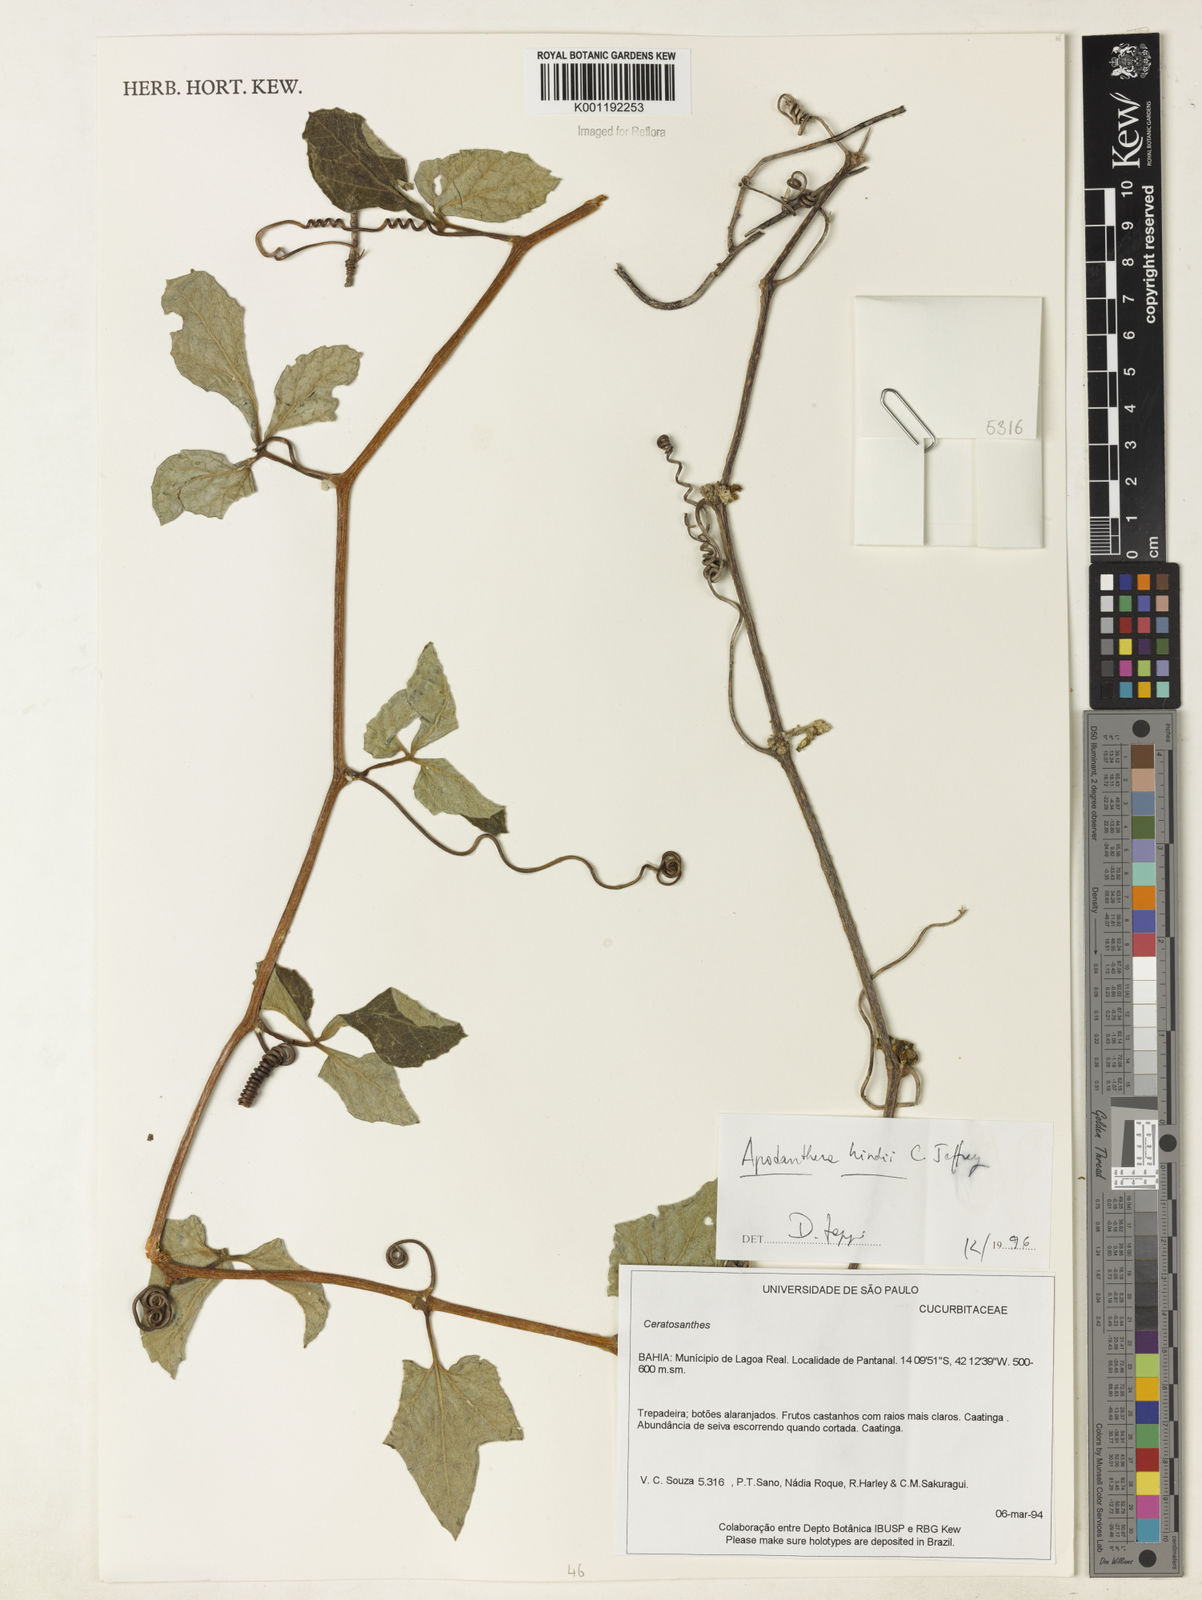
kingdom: Plantae
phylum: Tracheophyta
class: Magnoliopsida
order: Cucurbitales
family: Cucurbitaceae
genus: Apodanthera
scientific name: Apodanthera hindii
